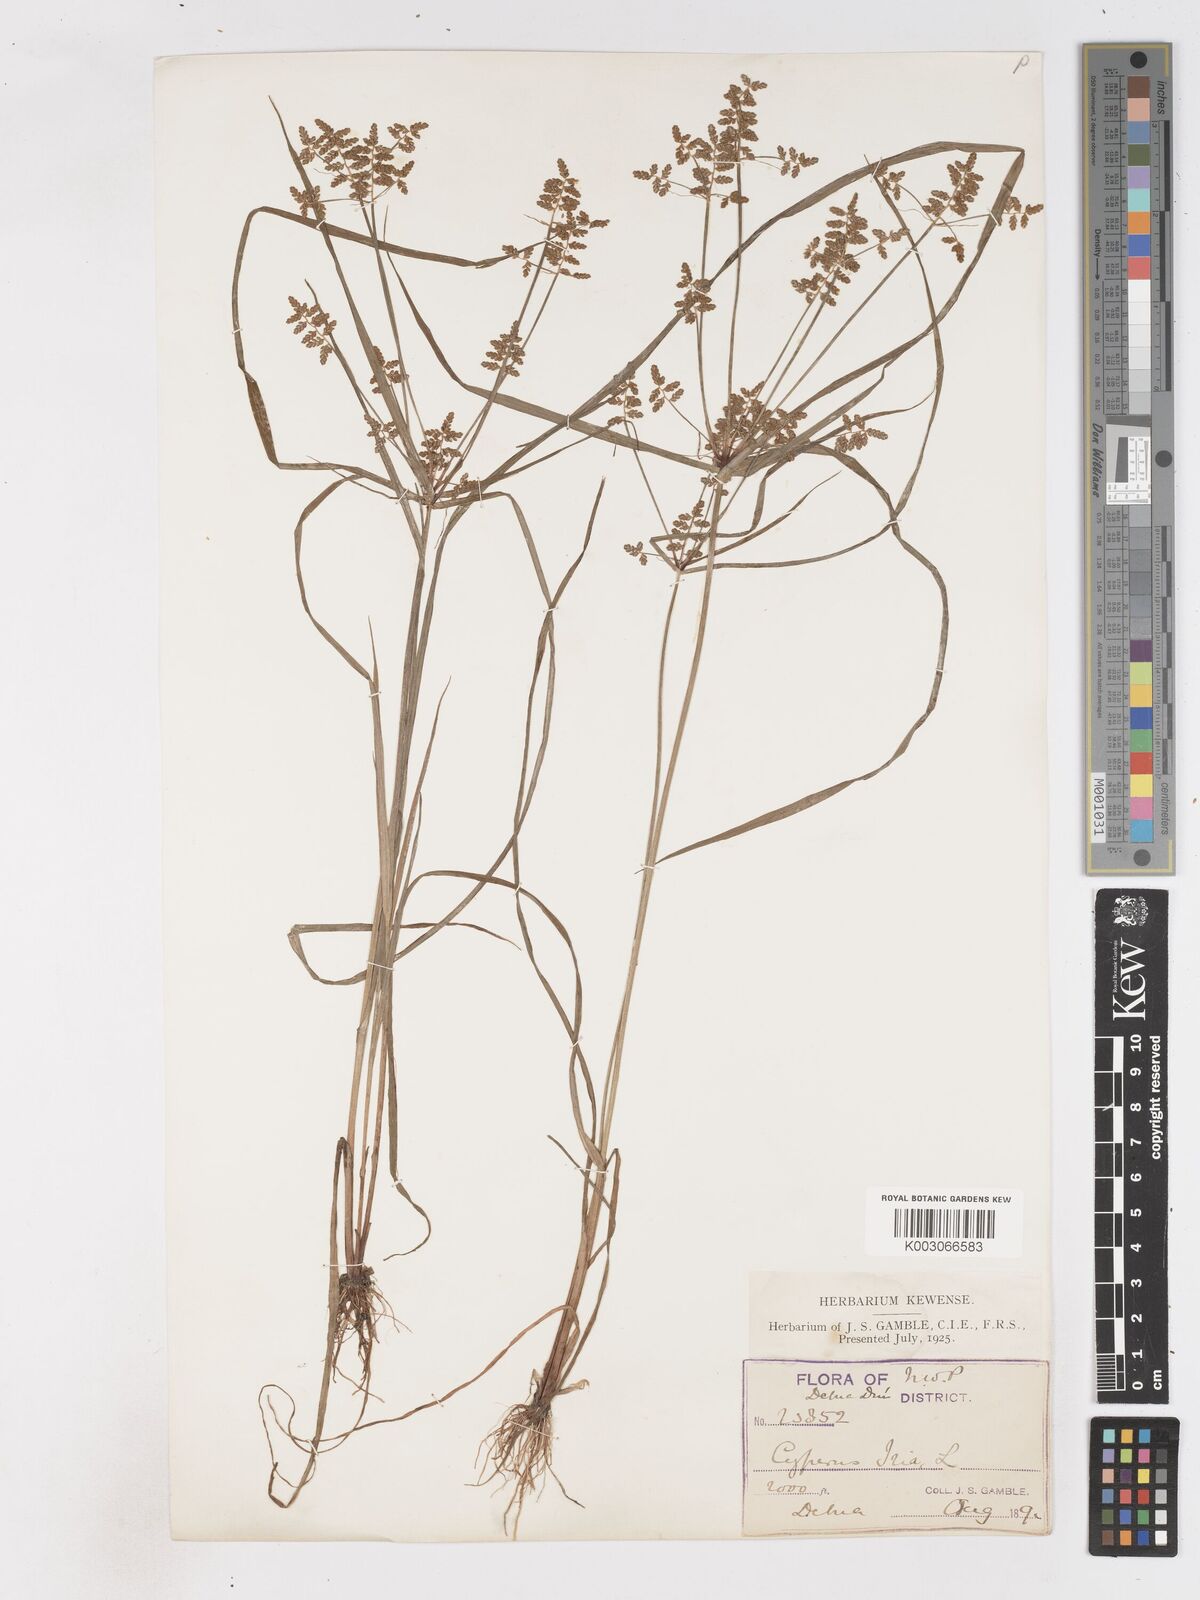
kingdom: Plantae
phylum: Tracheophyta
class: Liliopsida
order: Poales
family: Cyperaceae
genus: Cyperus
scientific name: Cyperus alulatus
